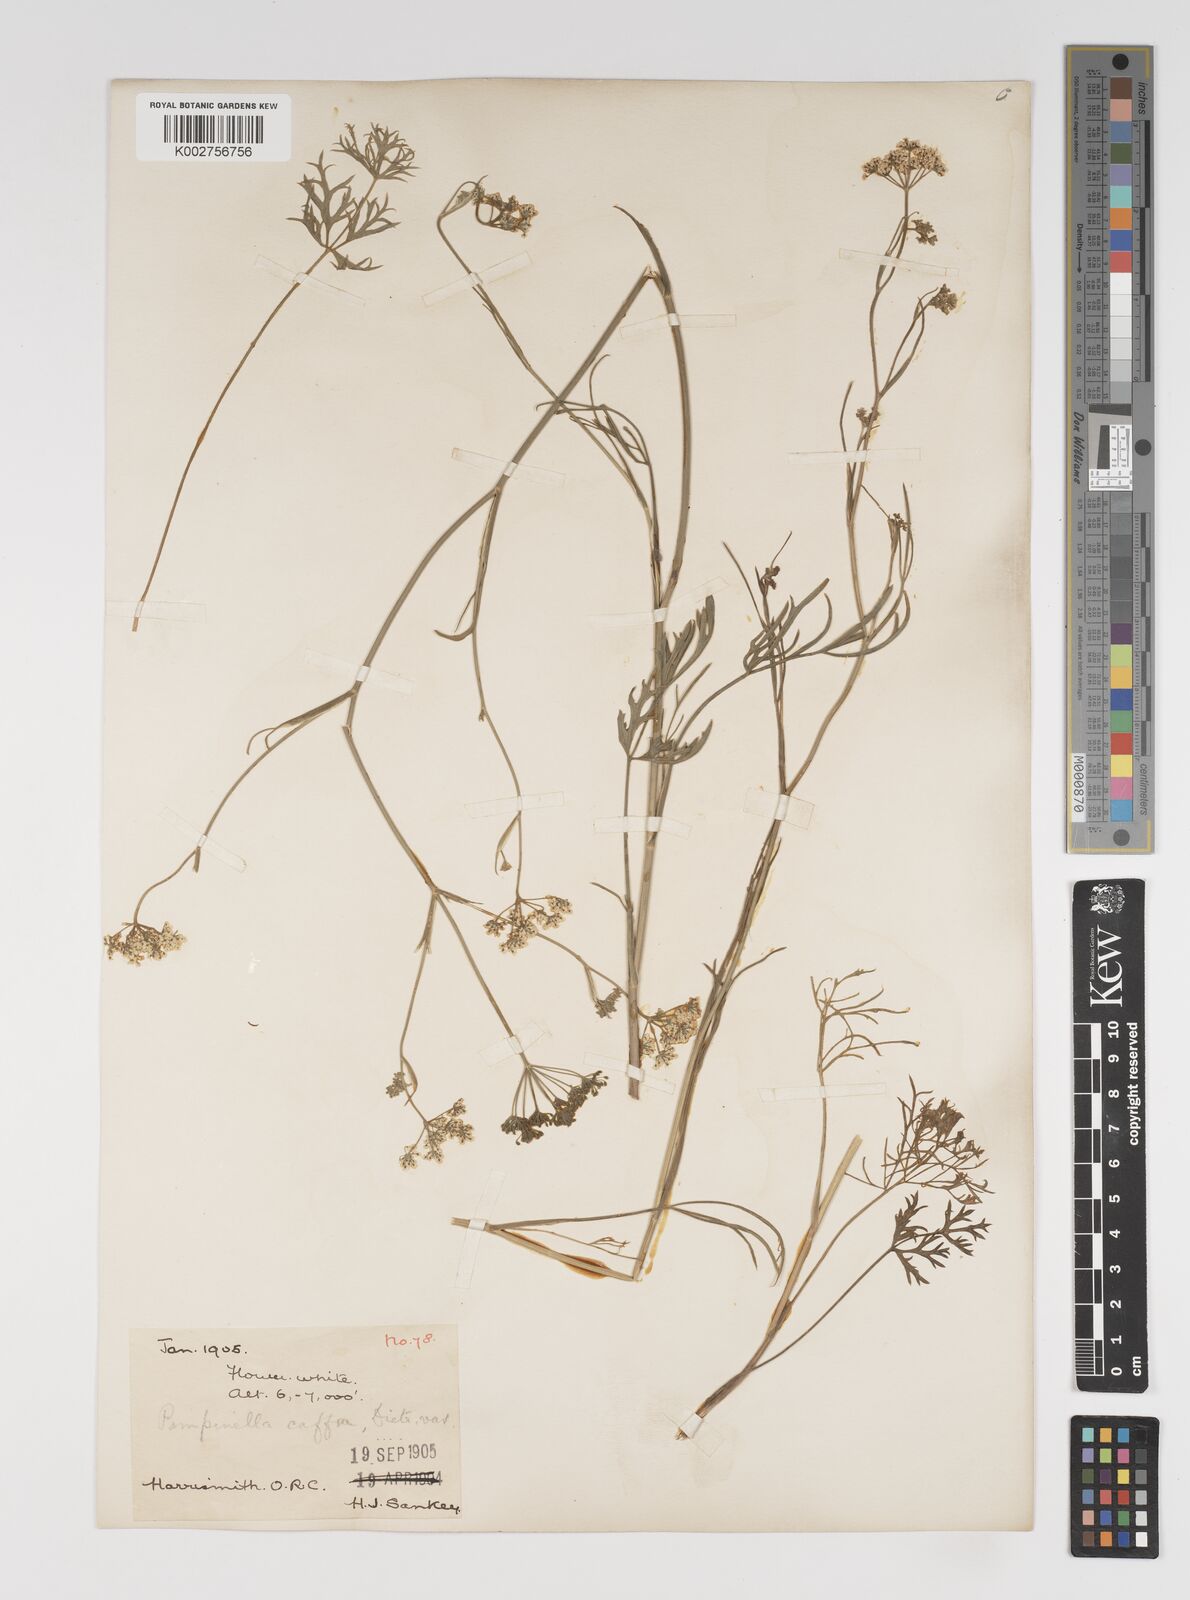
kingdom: Plantae
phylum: Tracheophyta
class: Magnoliopsida
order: Apiales
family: Apiaceae
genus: Pimpinella
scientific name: Pimpinella
